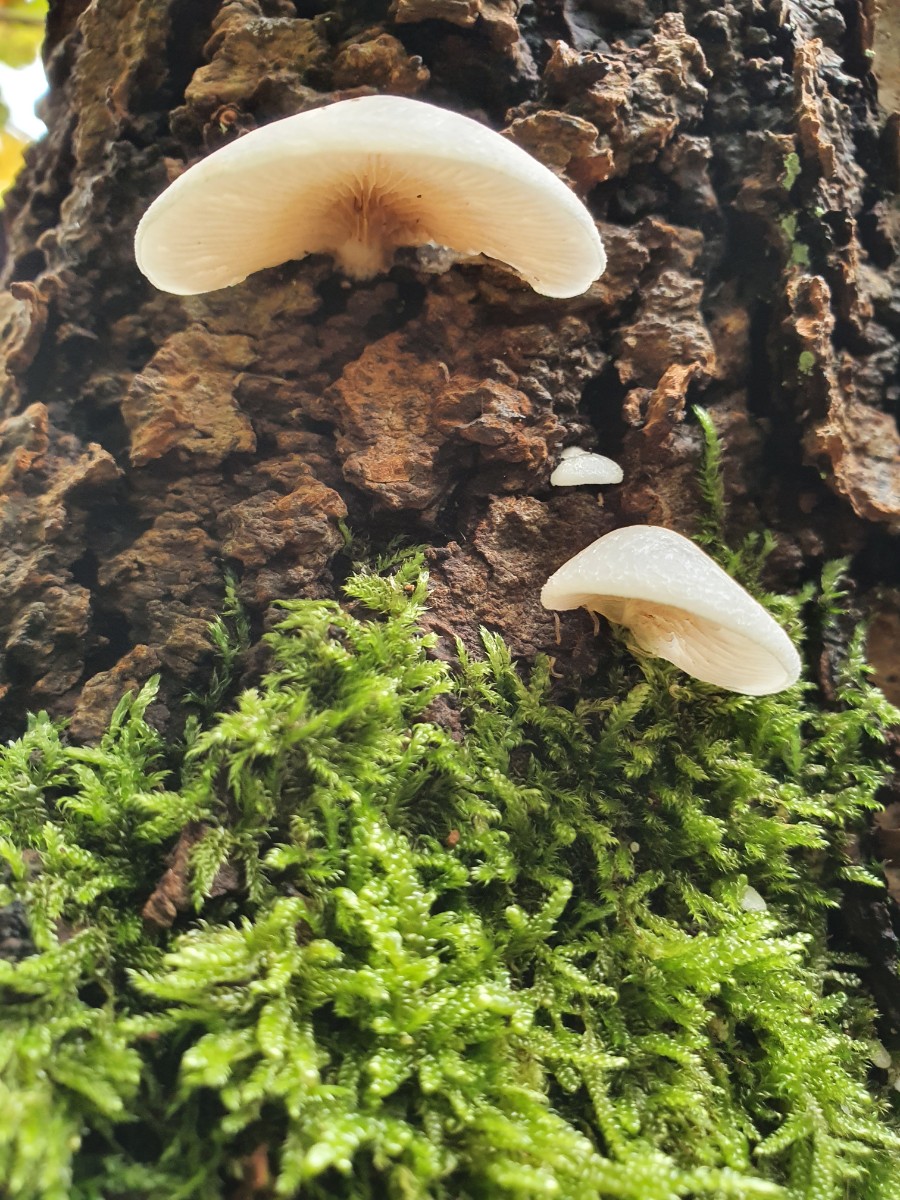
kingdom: Fungi
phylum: Basidiomycota
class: Agaricomycetes
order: Agaricales
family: Crepidotaceae
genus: Crepidotus
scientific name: Crepidotus mollis
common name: blød muslingesvamp
